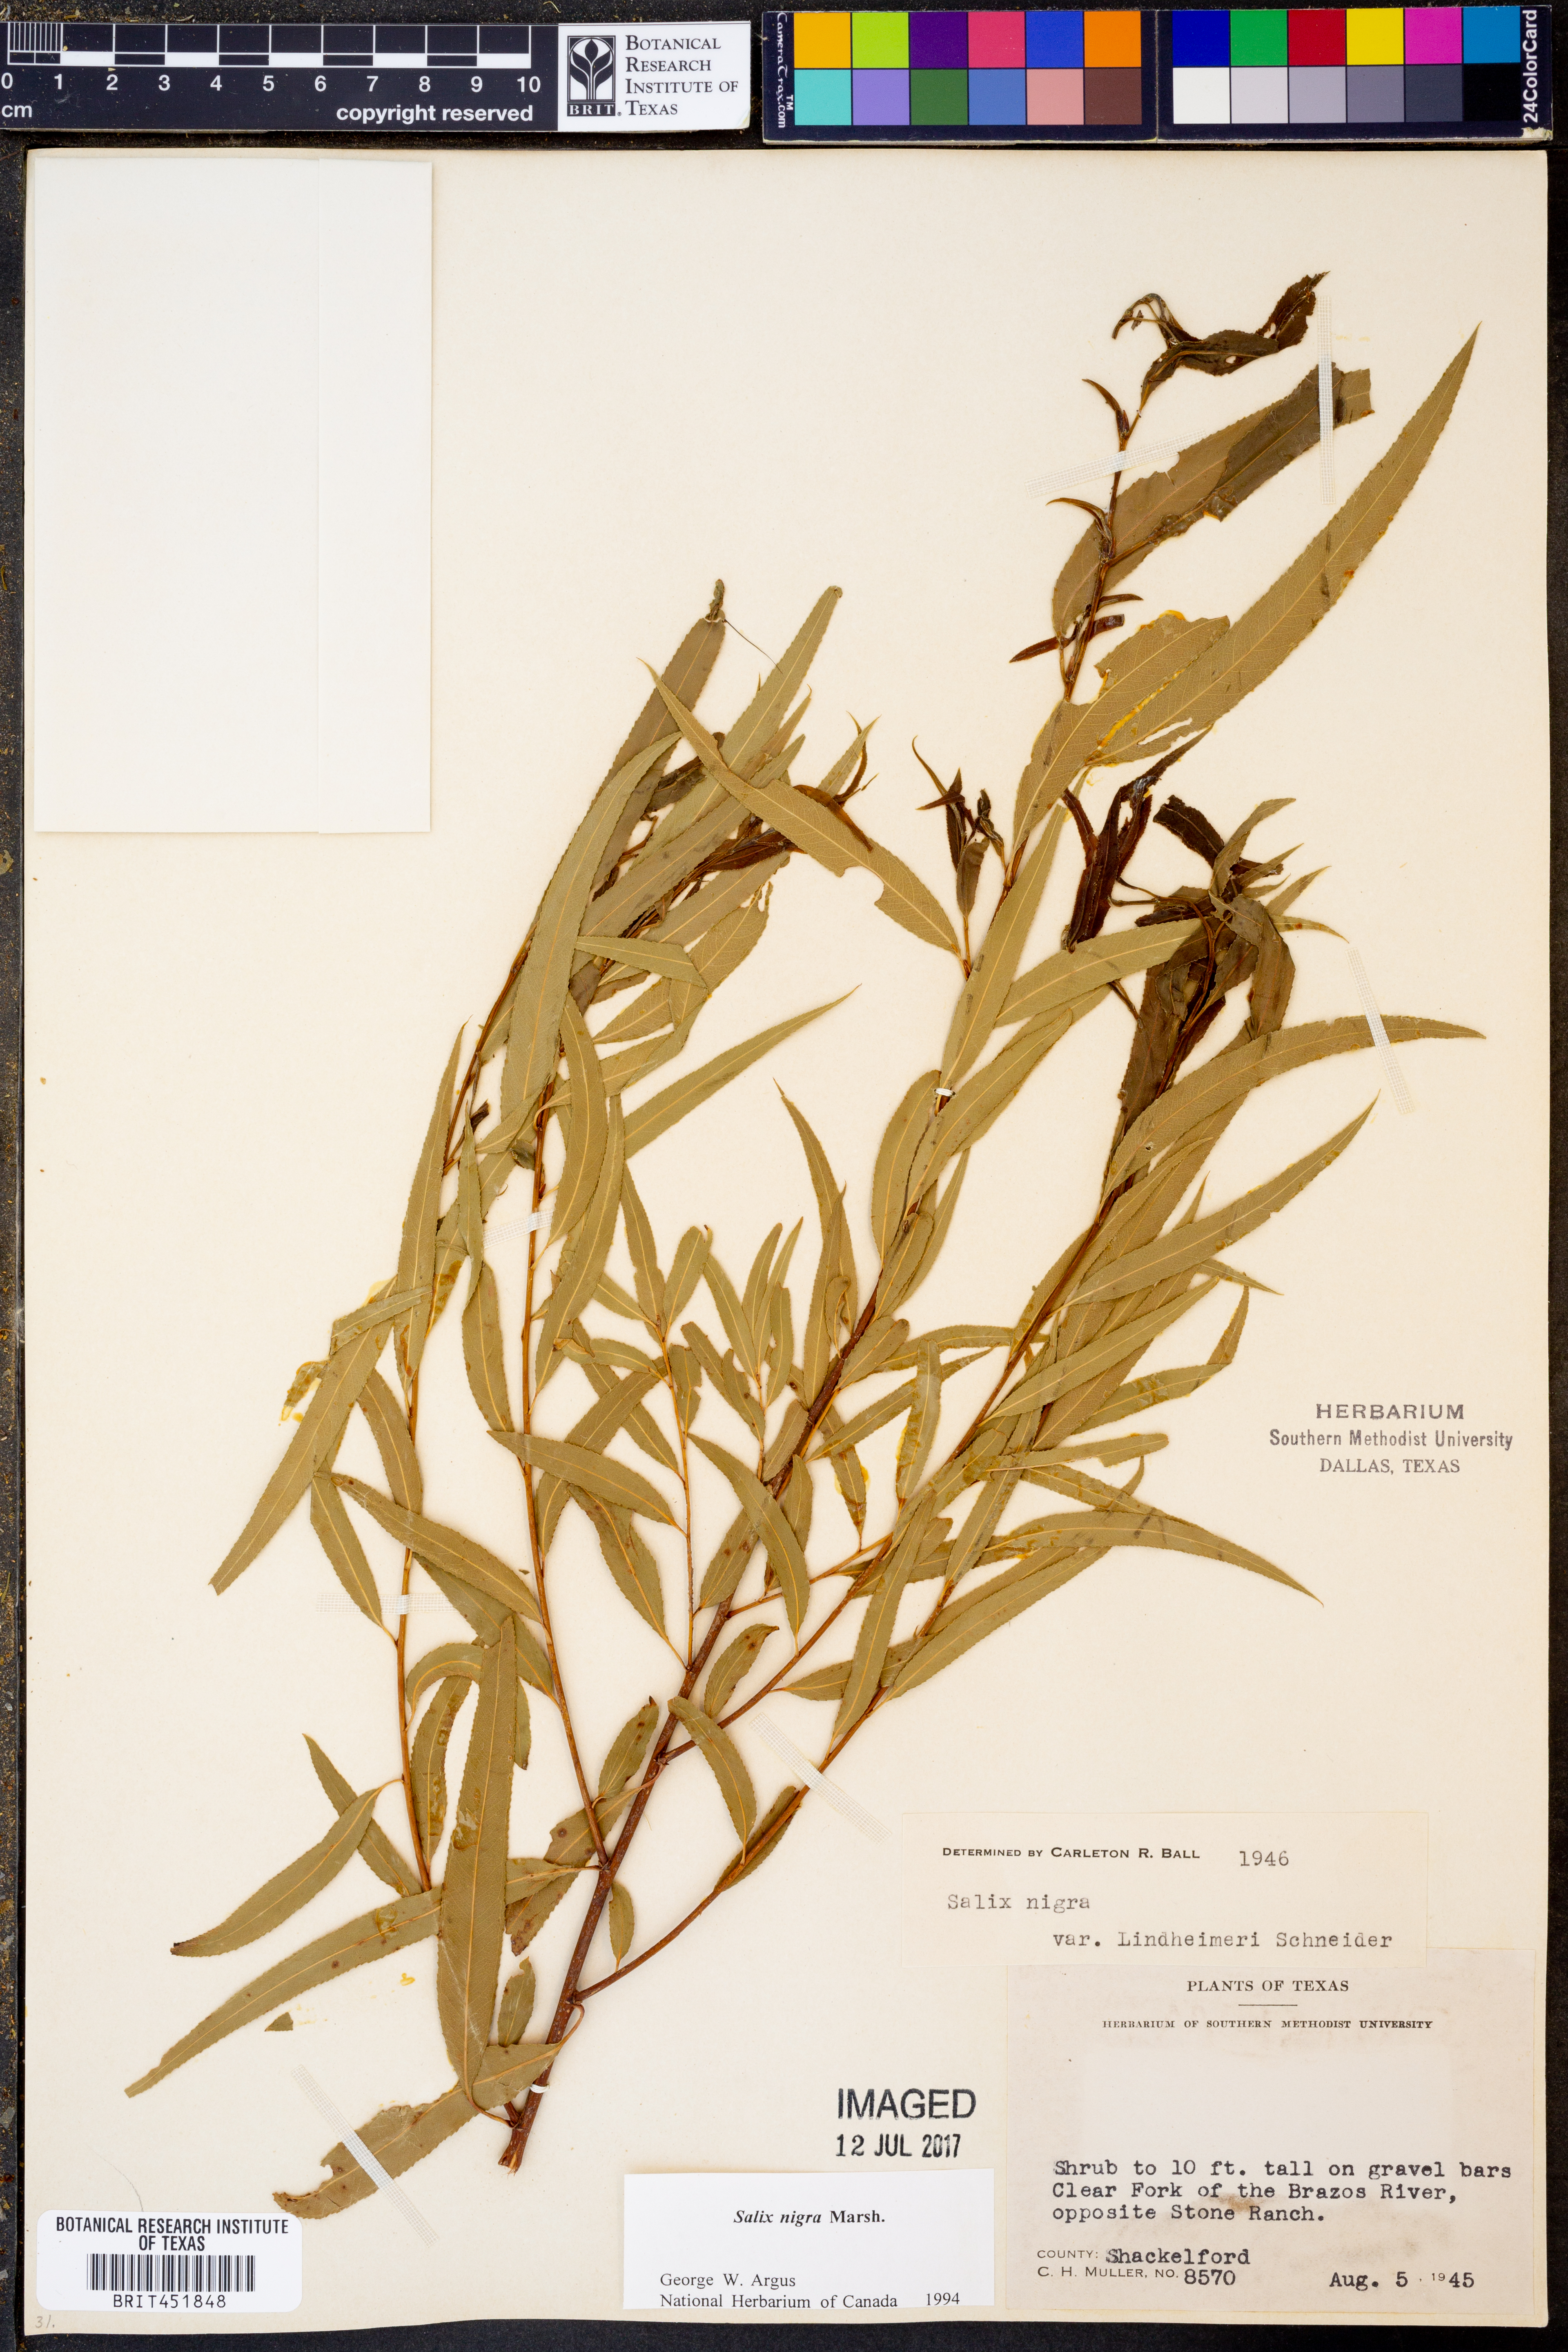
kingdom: Plantae
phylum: Tracheophyta
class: Magnoliopsida
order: Malpighiales
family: Salicaceae
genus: Salix
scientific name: Salix nigra
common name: Black willow
